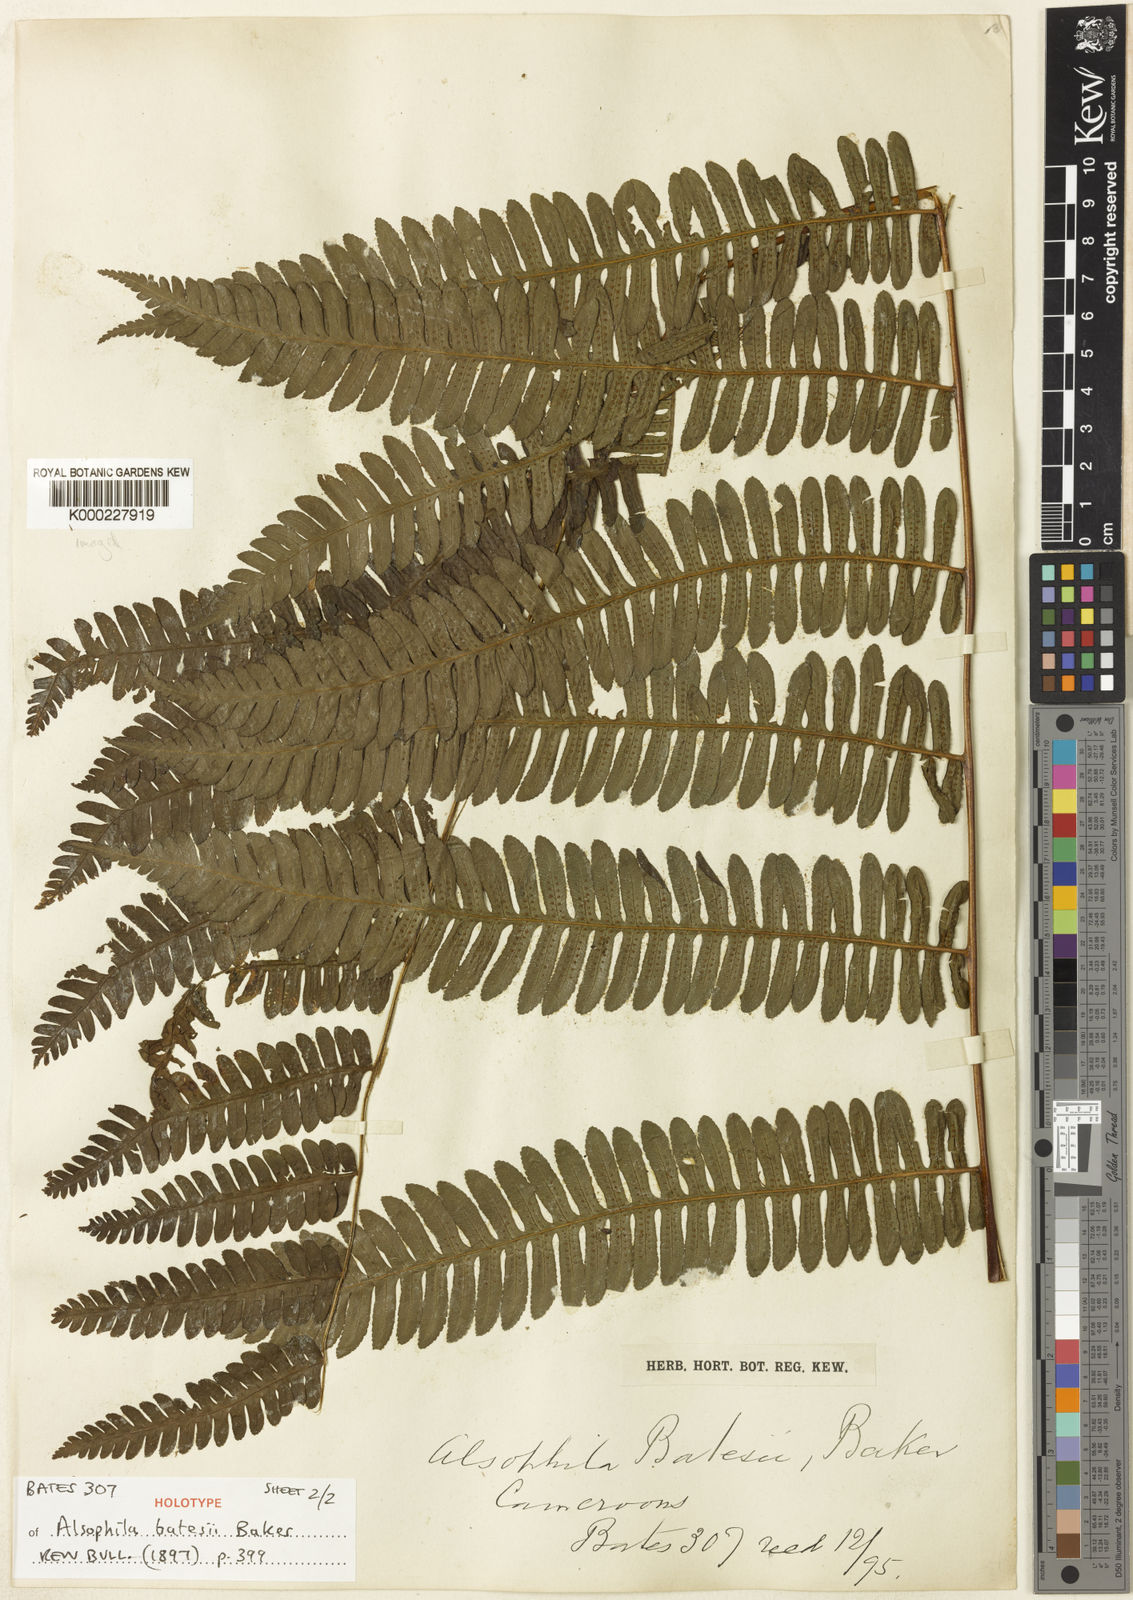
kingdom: Plantae
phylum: Tracheophyta
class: Polypodiopsida
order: Cyatheales
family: Cyatheaceae
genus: Alsophila
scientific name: Alsophila camerooniana
